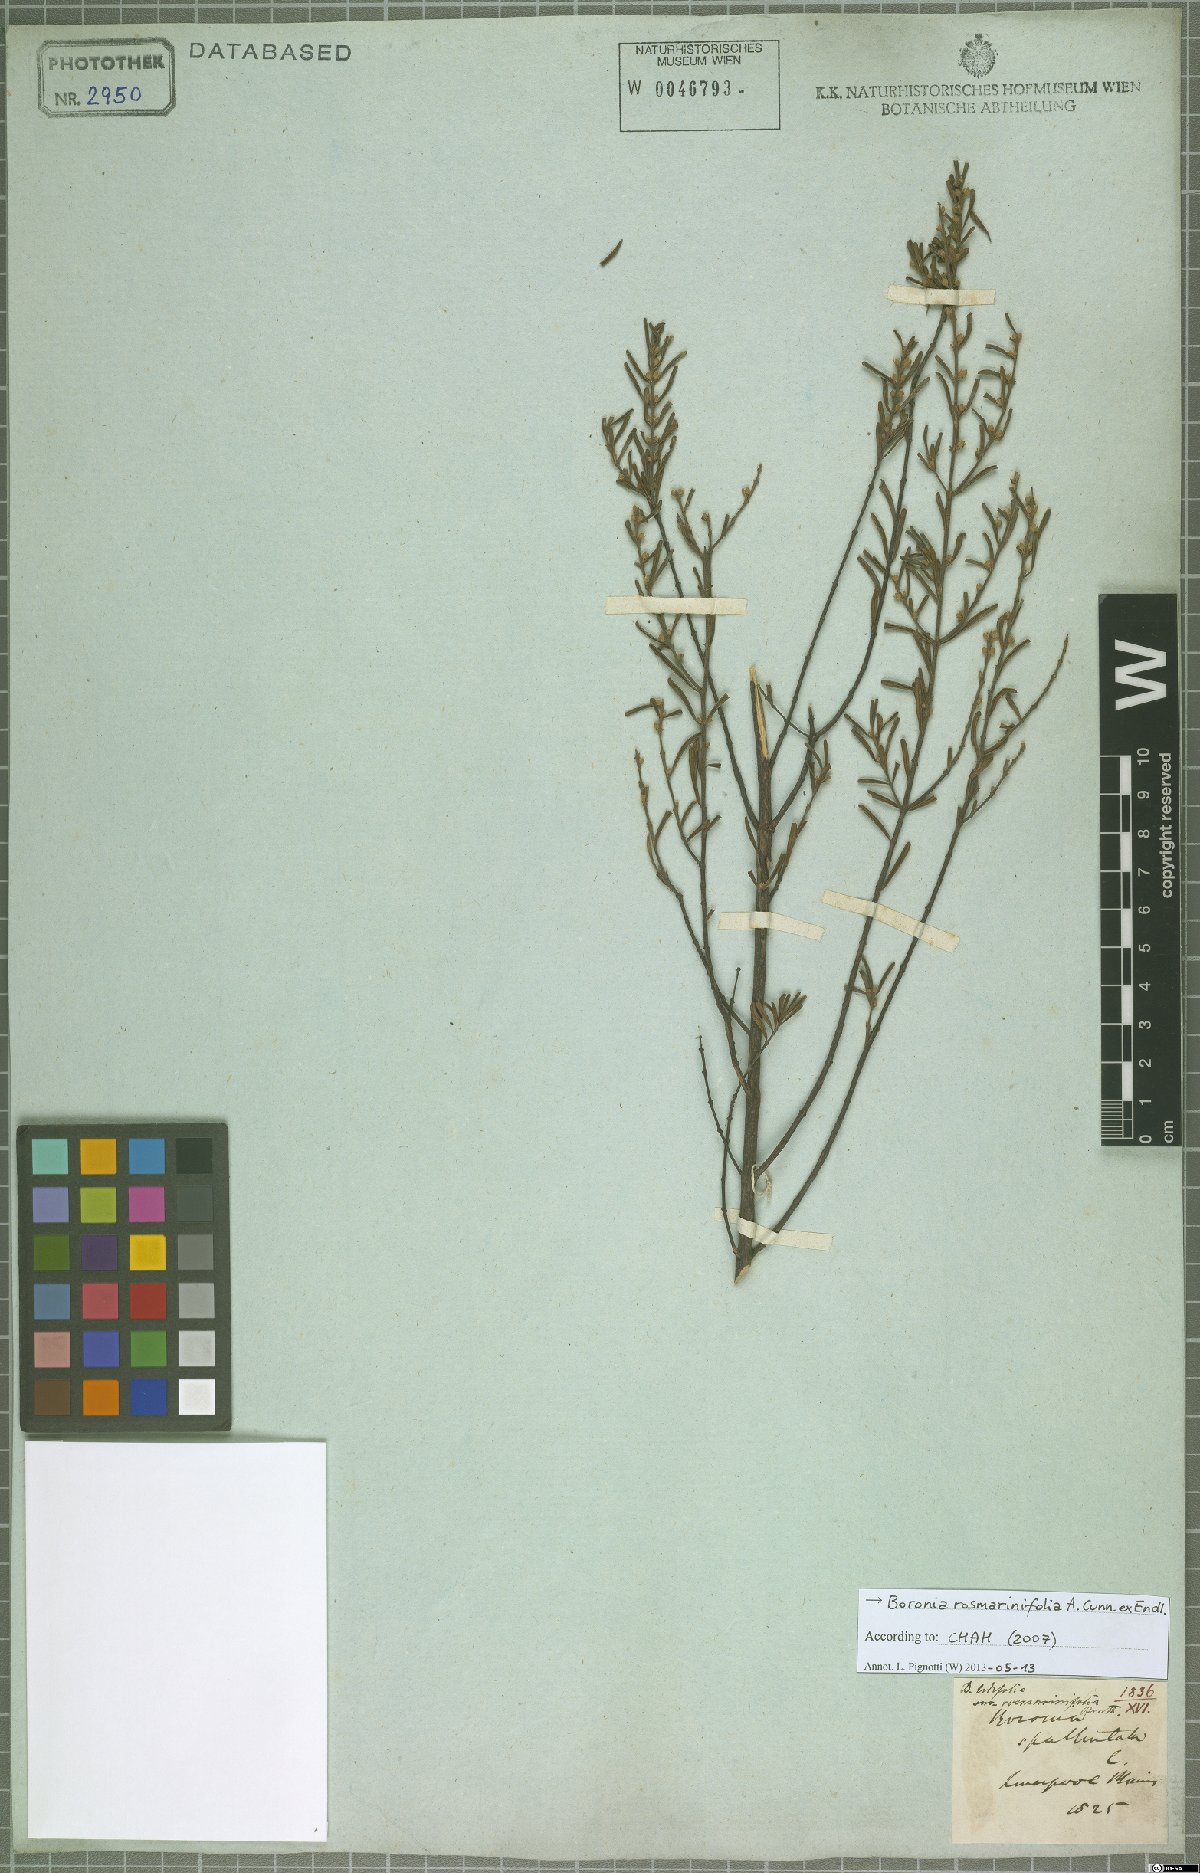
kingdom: Plantae
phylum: Tracheophyta
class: Magnoliopsida
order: Sapindales
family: Rutaceae
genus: Boronia
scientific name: Boronia rosmarinifolia
